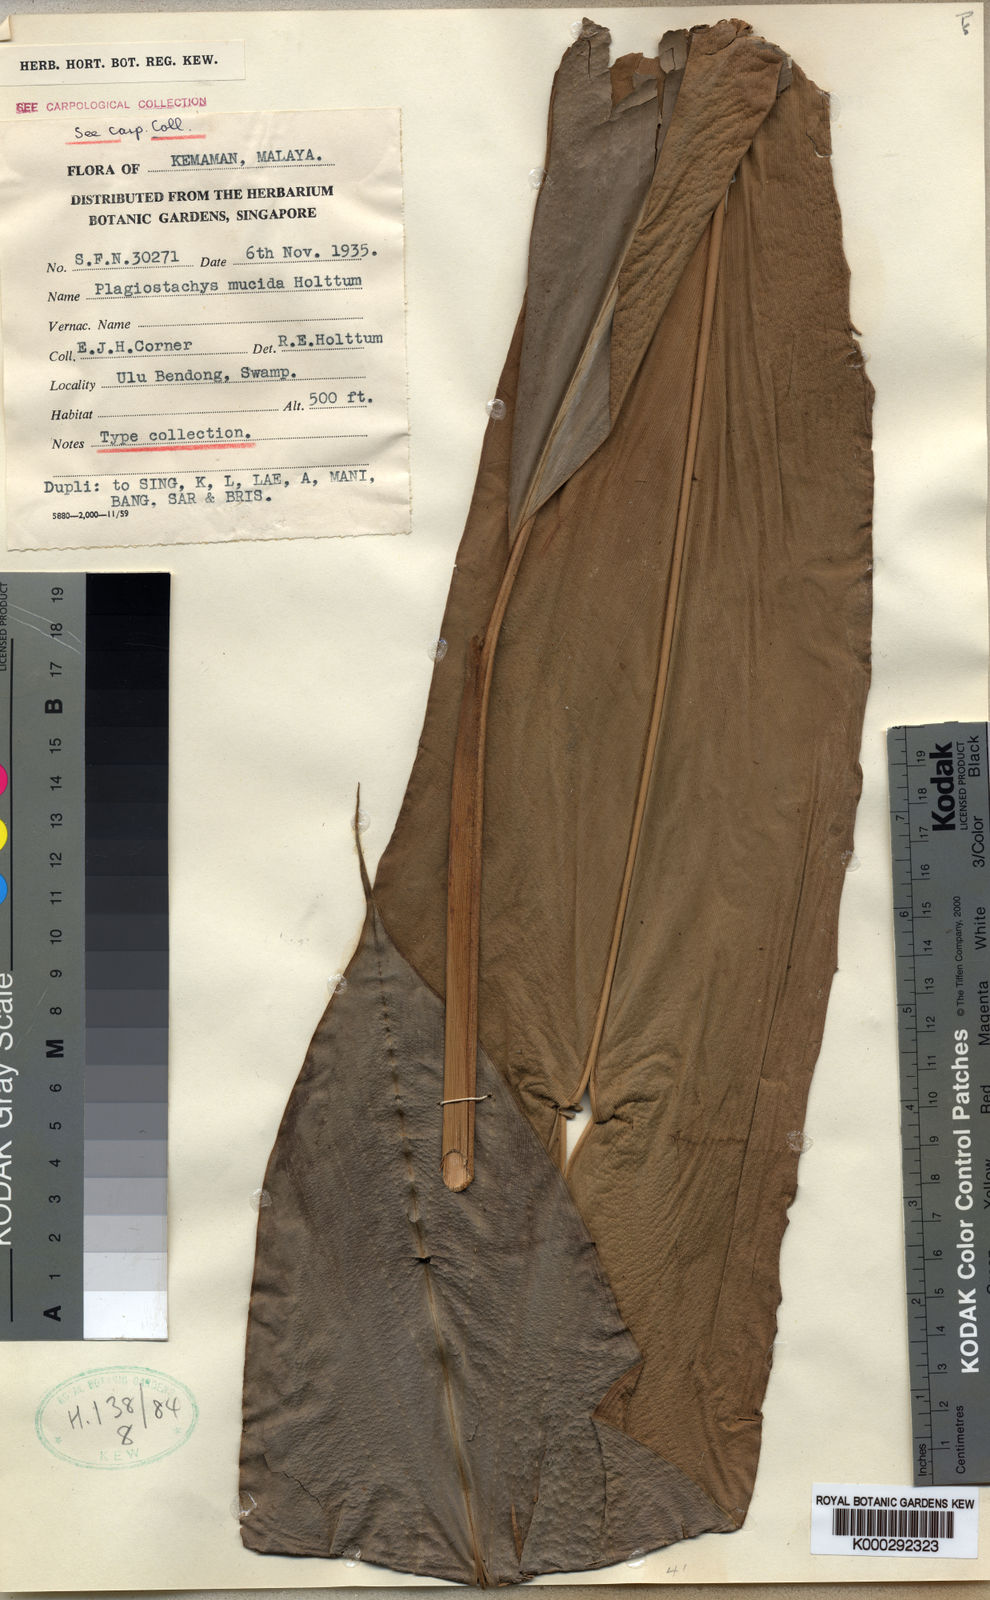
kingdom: Plantae
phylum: Tracheophyta
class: Liliopsida
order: Zingiberales
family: Zingiberaceae
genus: Plagiostachys
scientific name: Plagiostachys mucida
